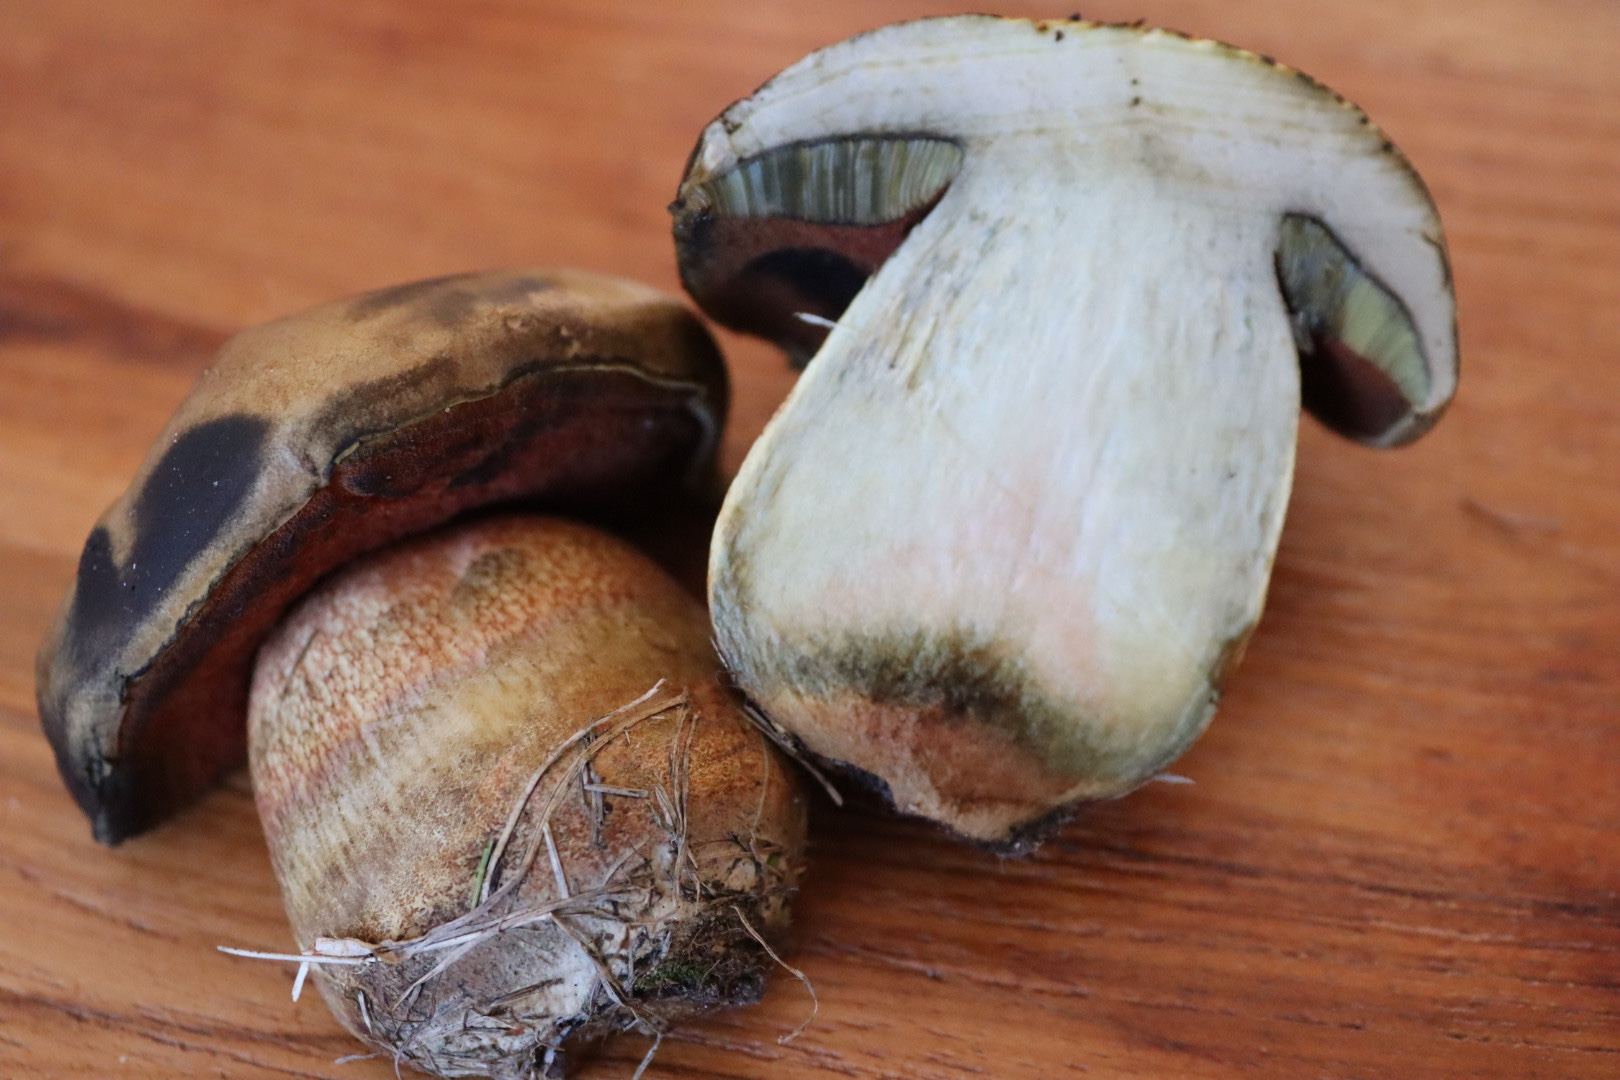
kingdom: Fungi
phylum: Basidiomycota
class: Agaricomycetes
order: Boletales
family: Boletaceae
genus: Suillellus
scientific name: Suillellus luridus
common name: netstokket indigorørhat
